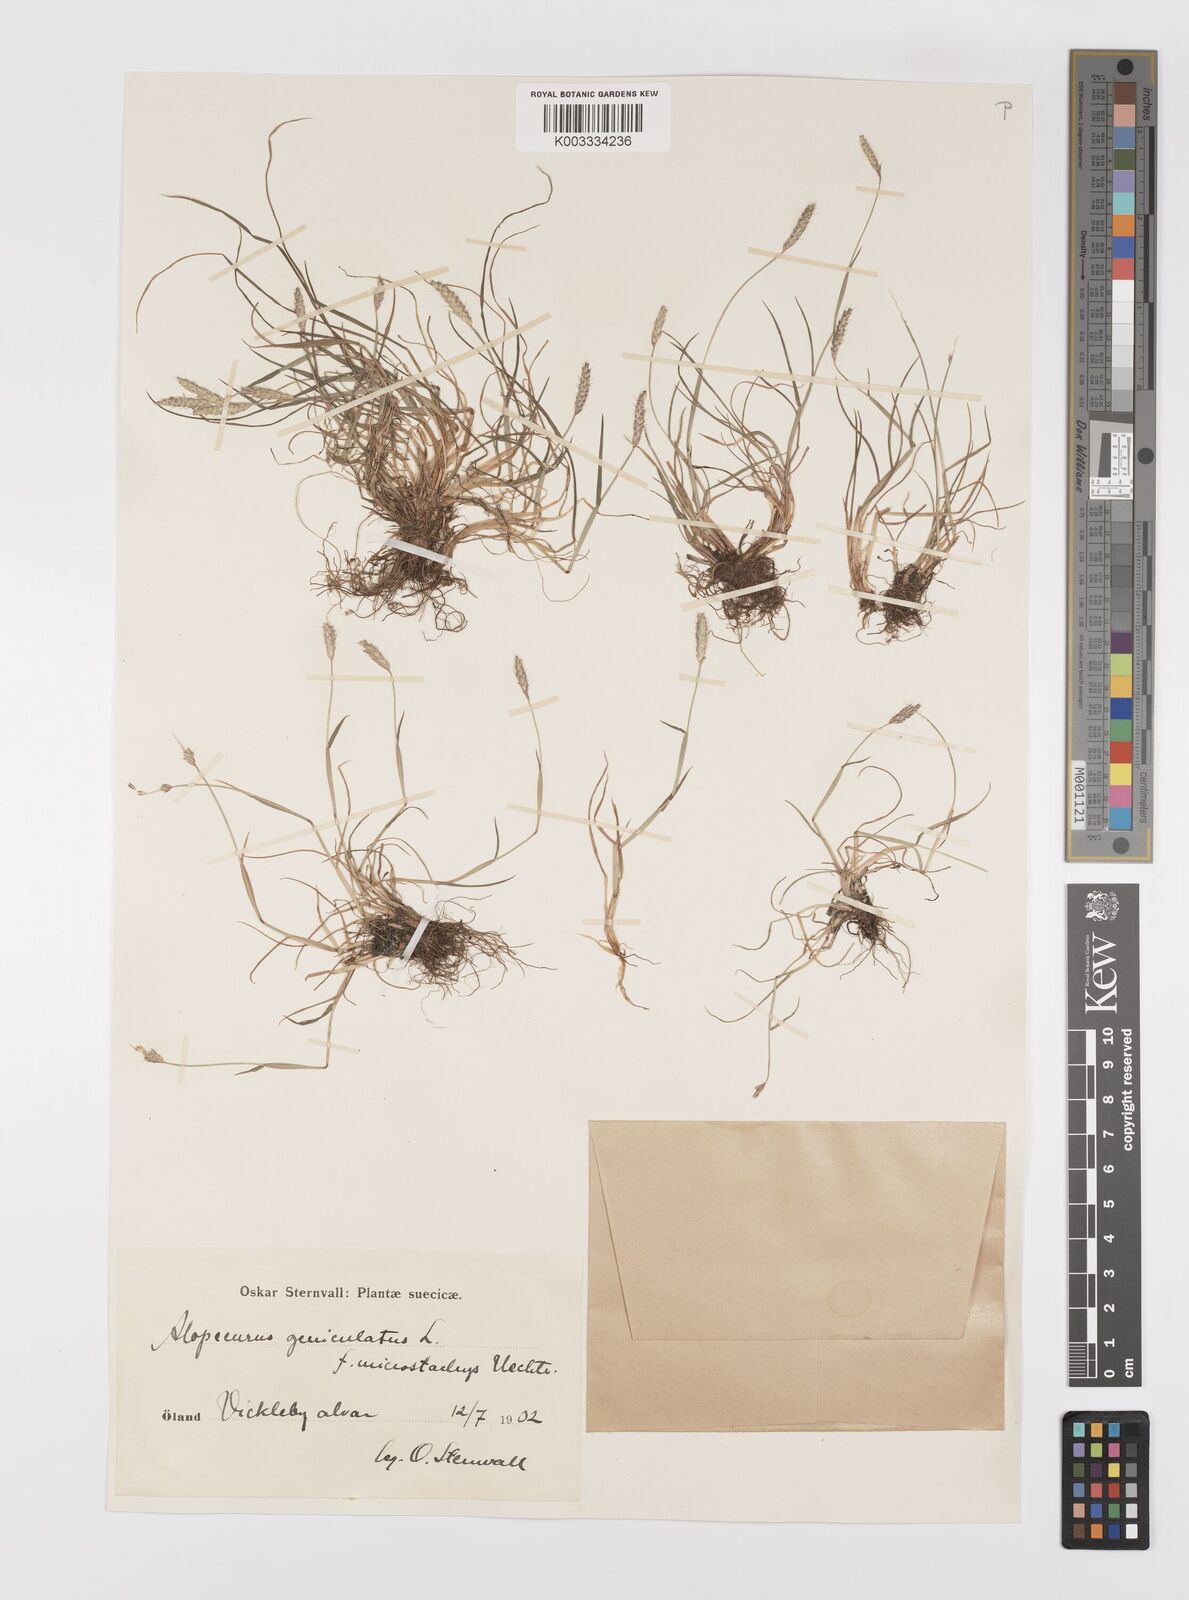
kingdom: Plantae
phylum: Tracheophyta
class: Liliopsida
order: Poales
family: Poaceae
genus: Alopecurus
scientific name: Alopecurus geniculatus
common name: Water foxtail
